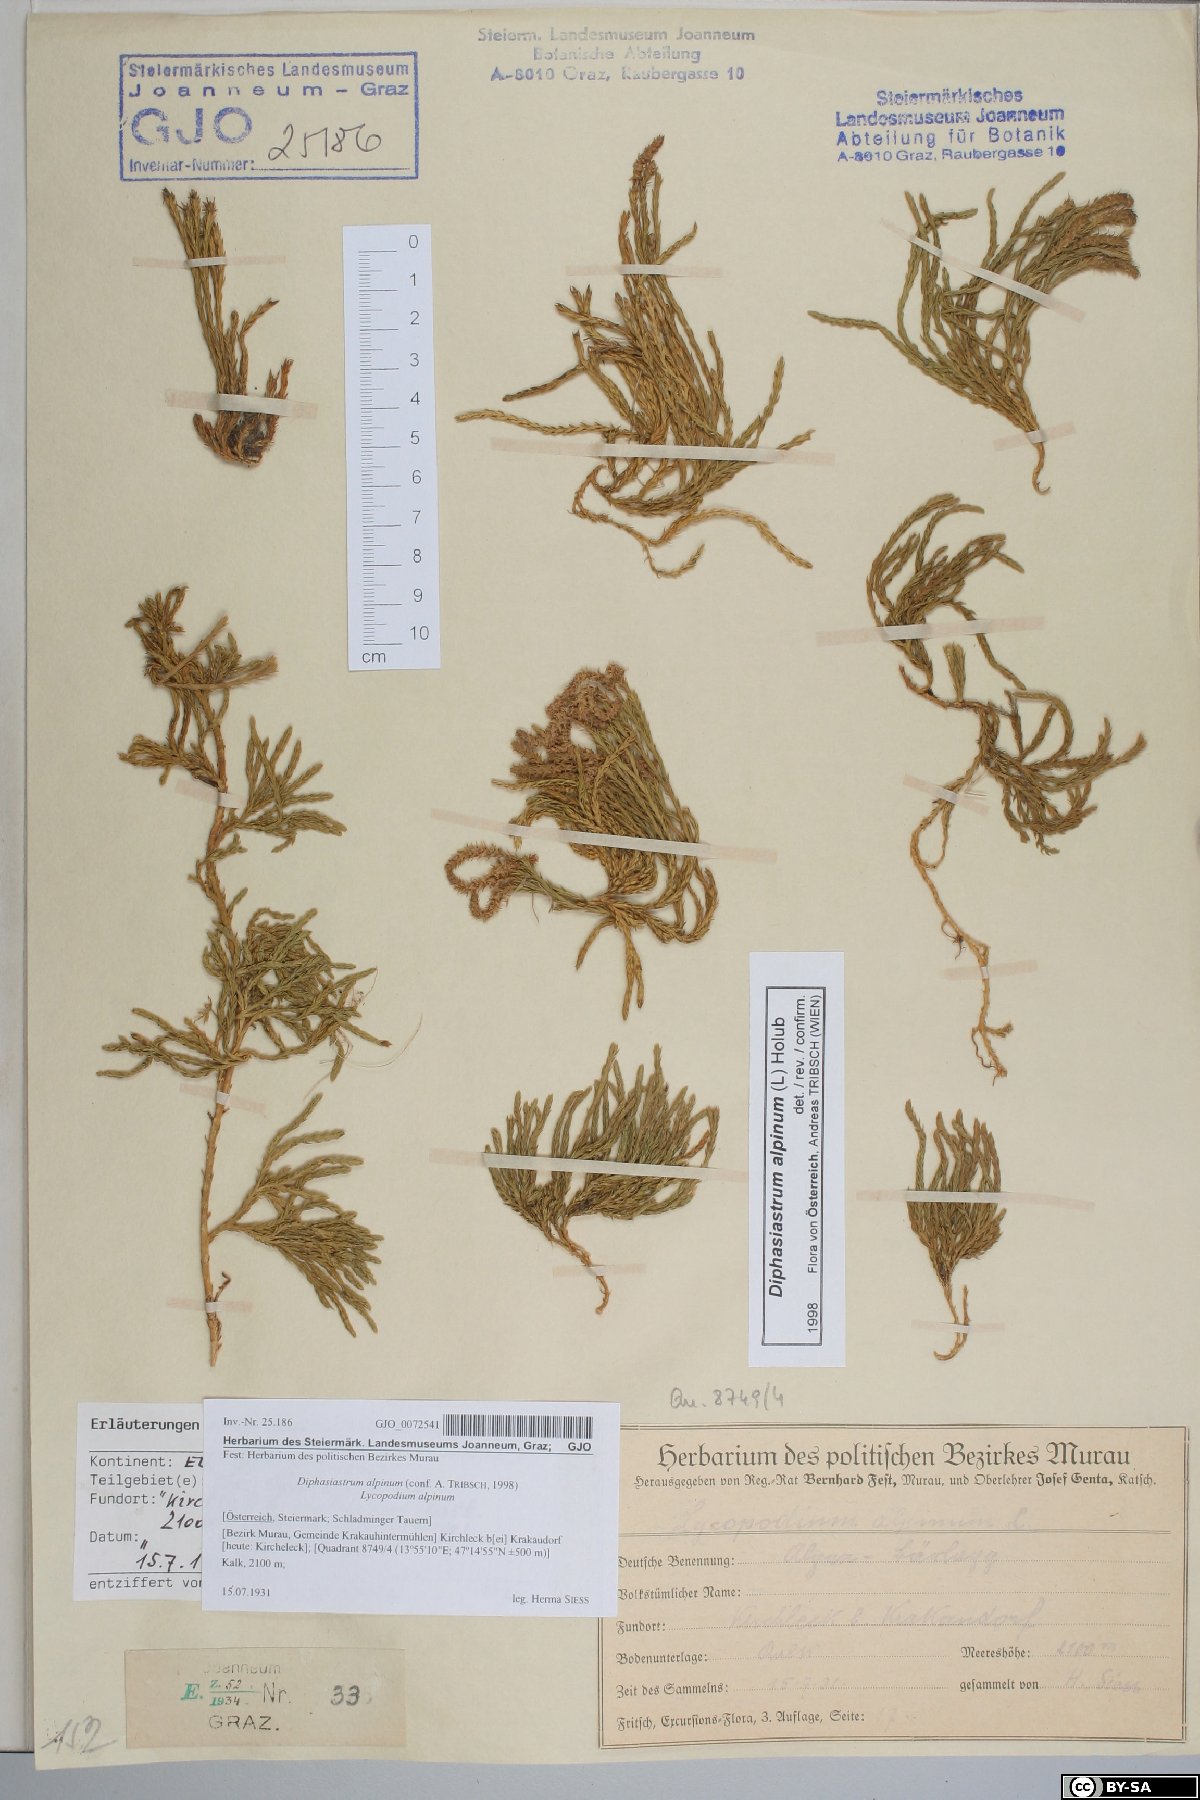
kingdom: Plantae
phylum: Tracheophyta
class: Lycopodiopsida
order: Lycopodiales
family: Lycopodiaceae
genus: Diphasiastrum
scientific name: Diphasiastrum alpinum
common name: Alpine clubmoss
